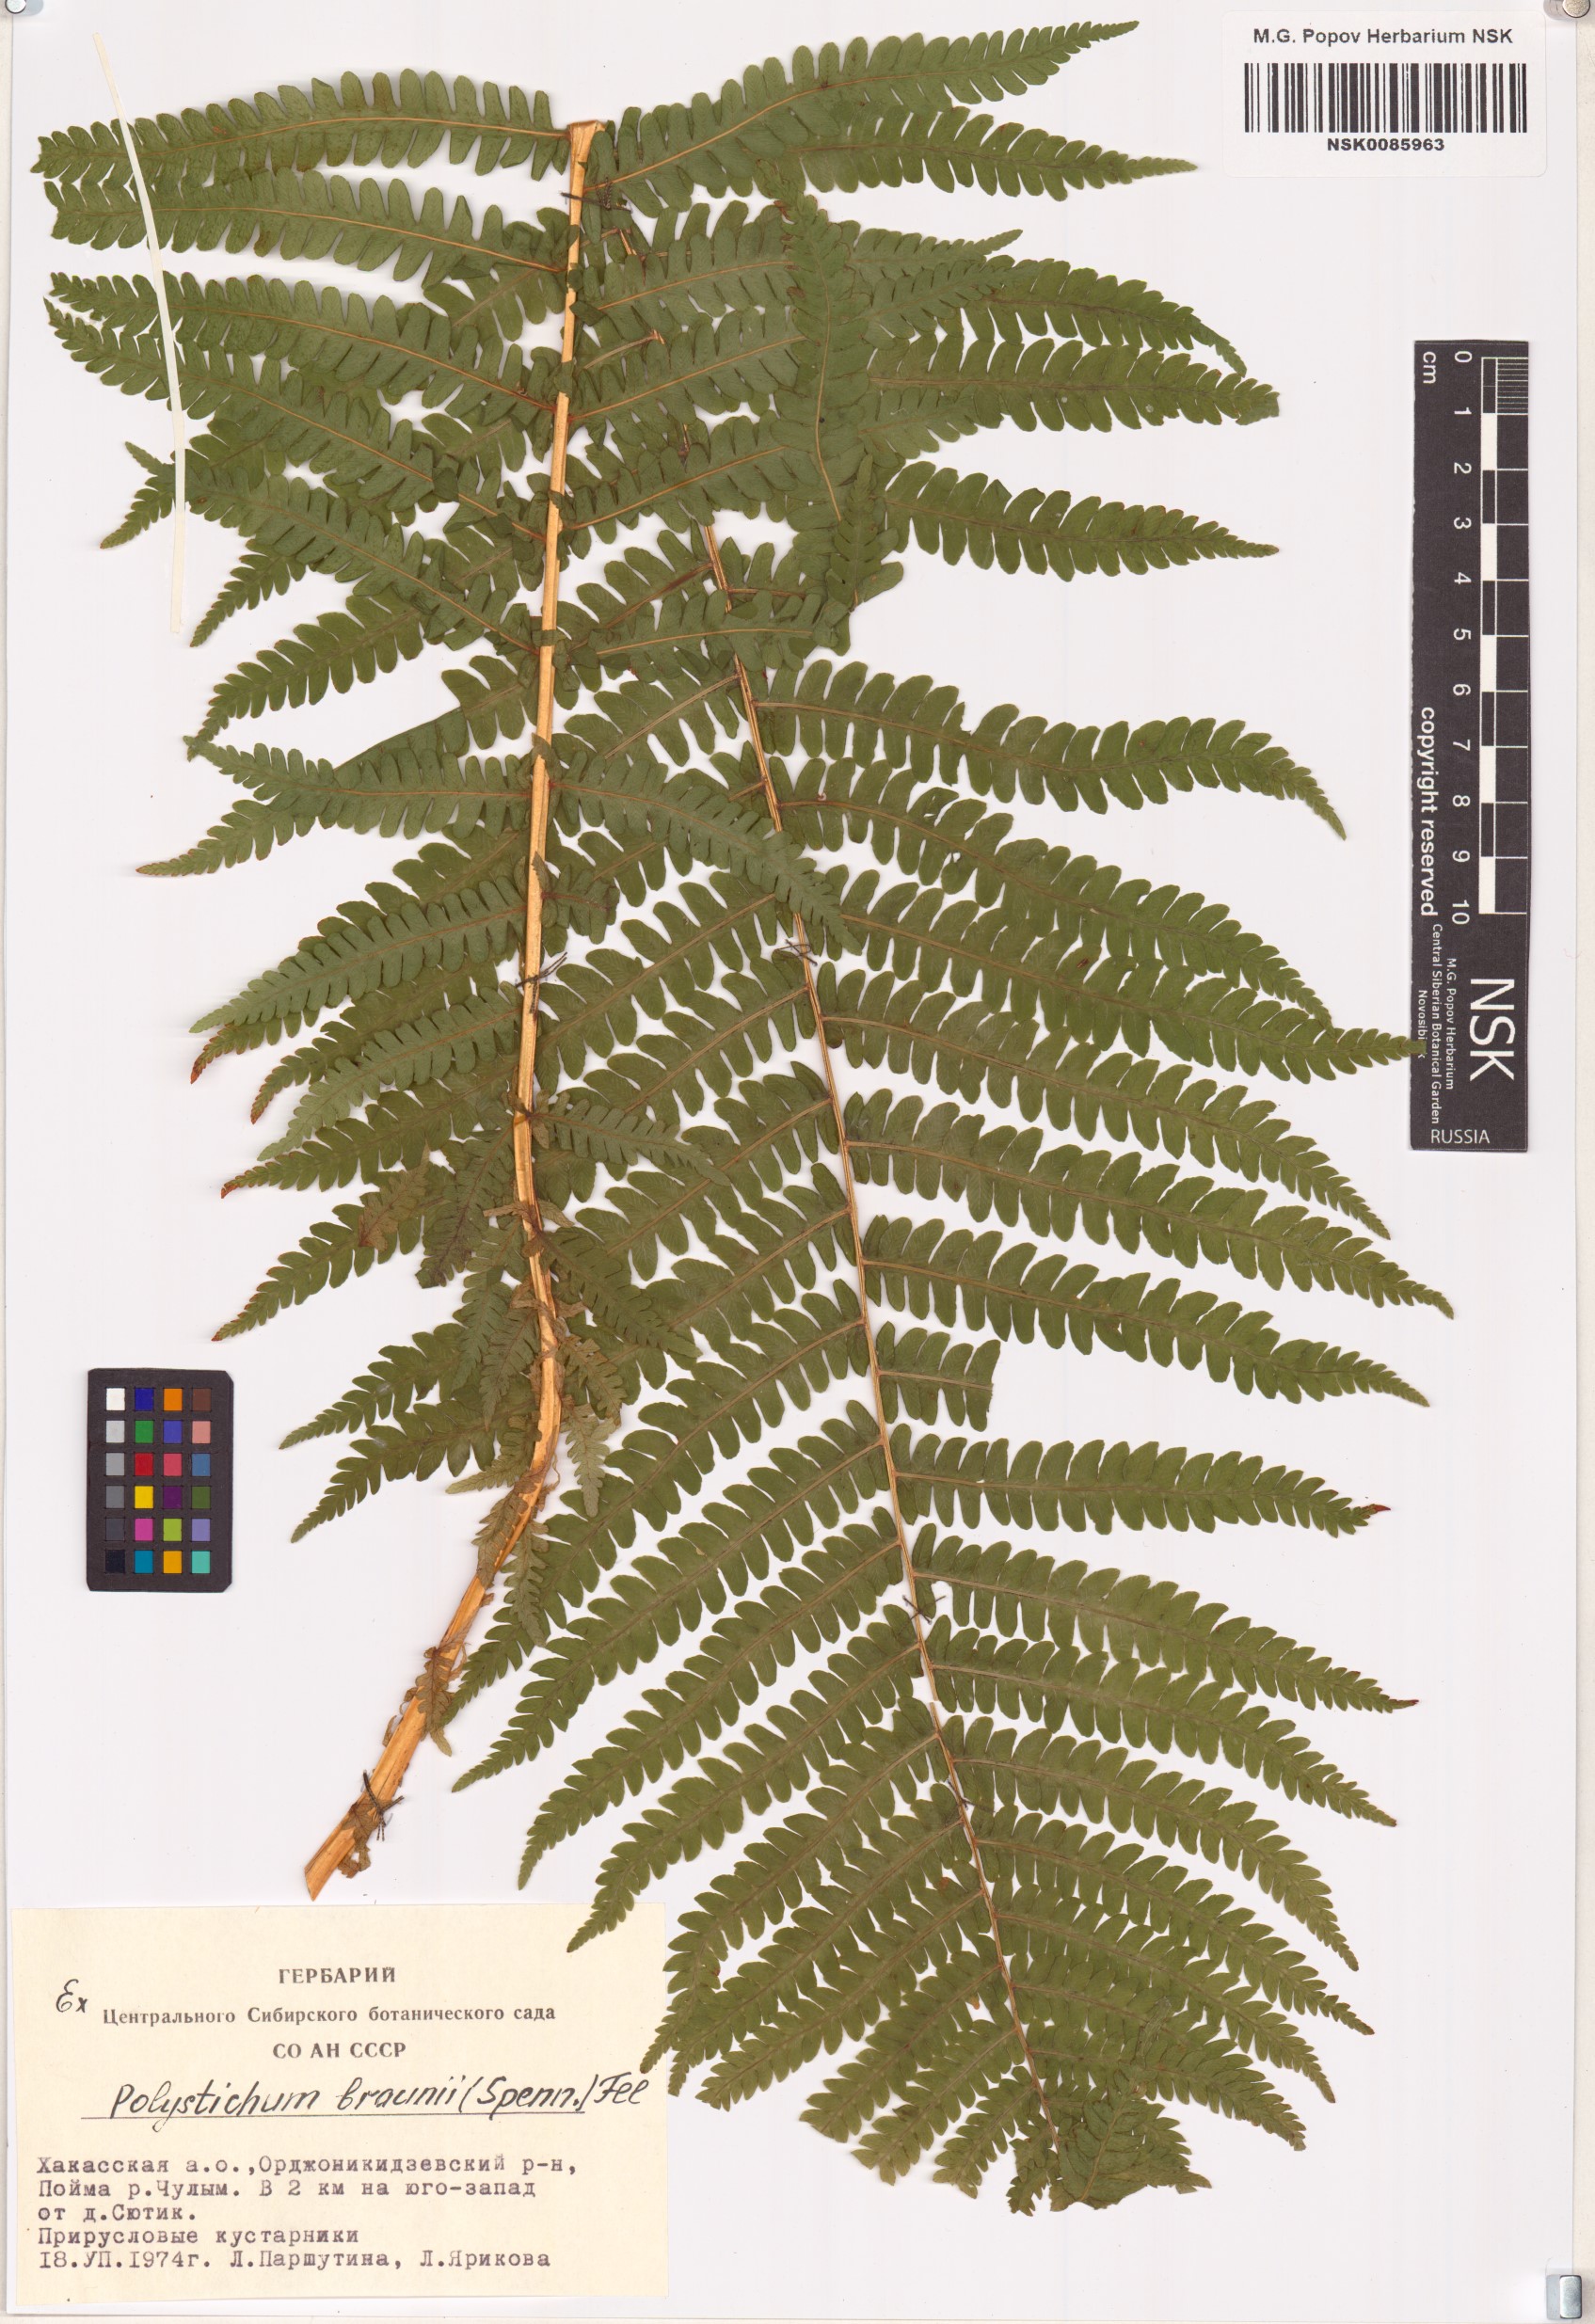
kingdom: Plantae
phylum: Tracheophyta
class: Polypodiopsida
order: Polypodiales
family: Dryopteridaceae
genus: Polystichum
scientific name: Polystichum braunii
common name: Braun's holly fern
